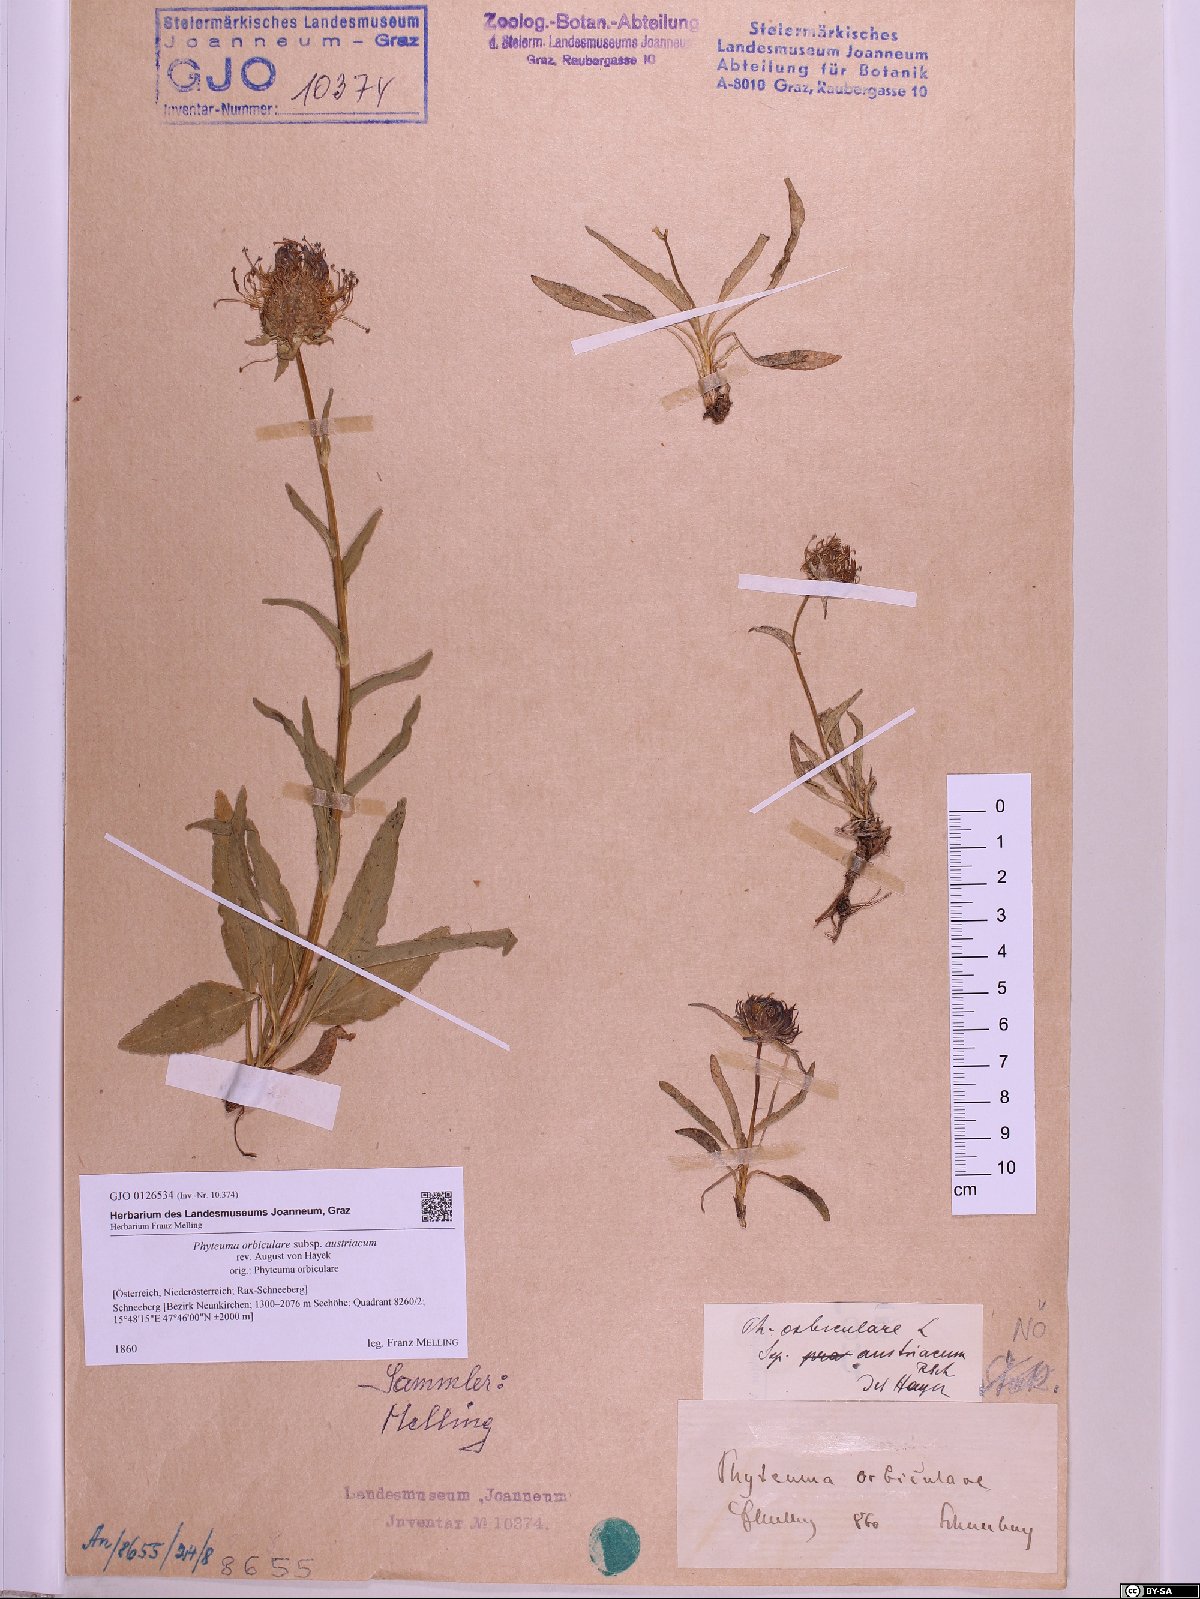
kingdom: Plantae
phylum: Tracheophyta
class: Magnoliopsida
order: Asterales
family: Campanulaceae
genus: Phyteuma
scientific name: Phyteuma orbiculare
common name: Round-headed rampion
